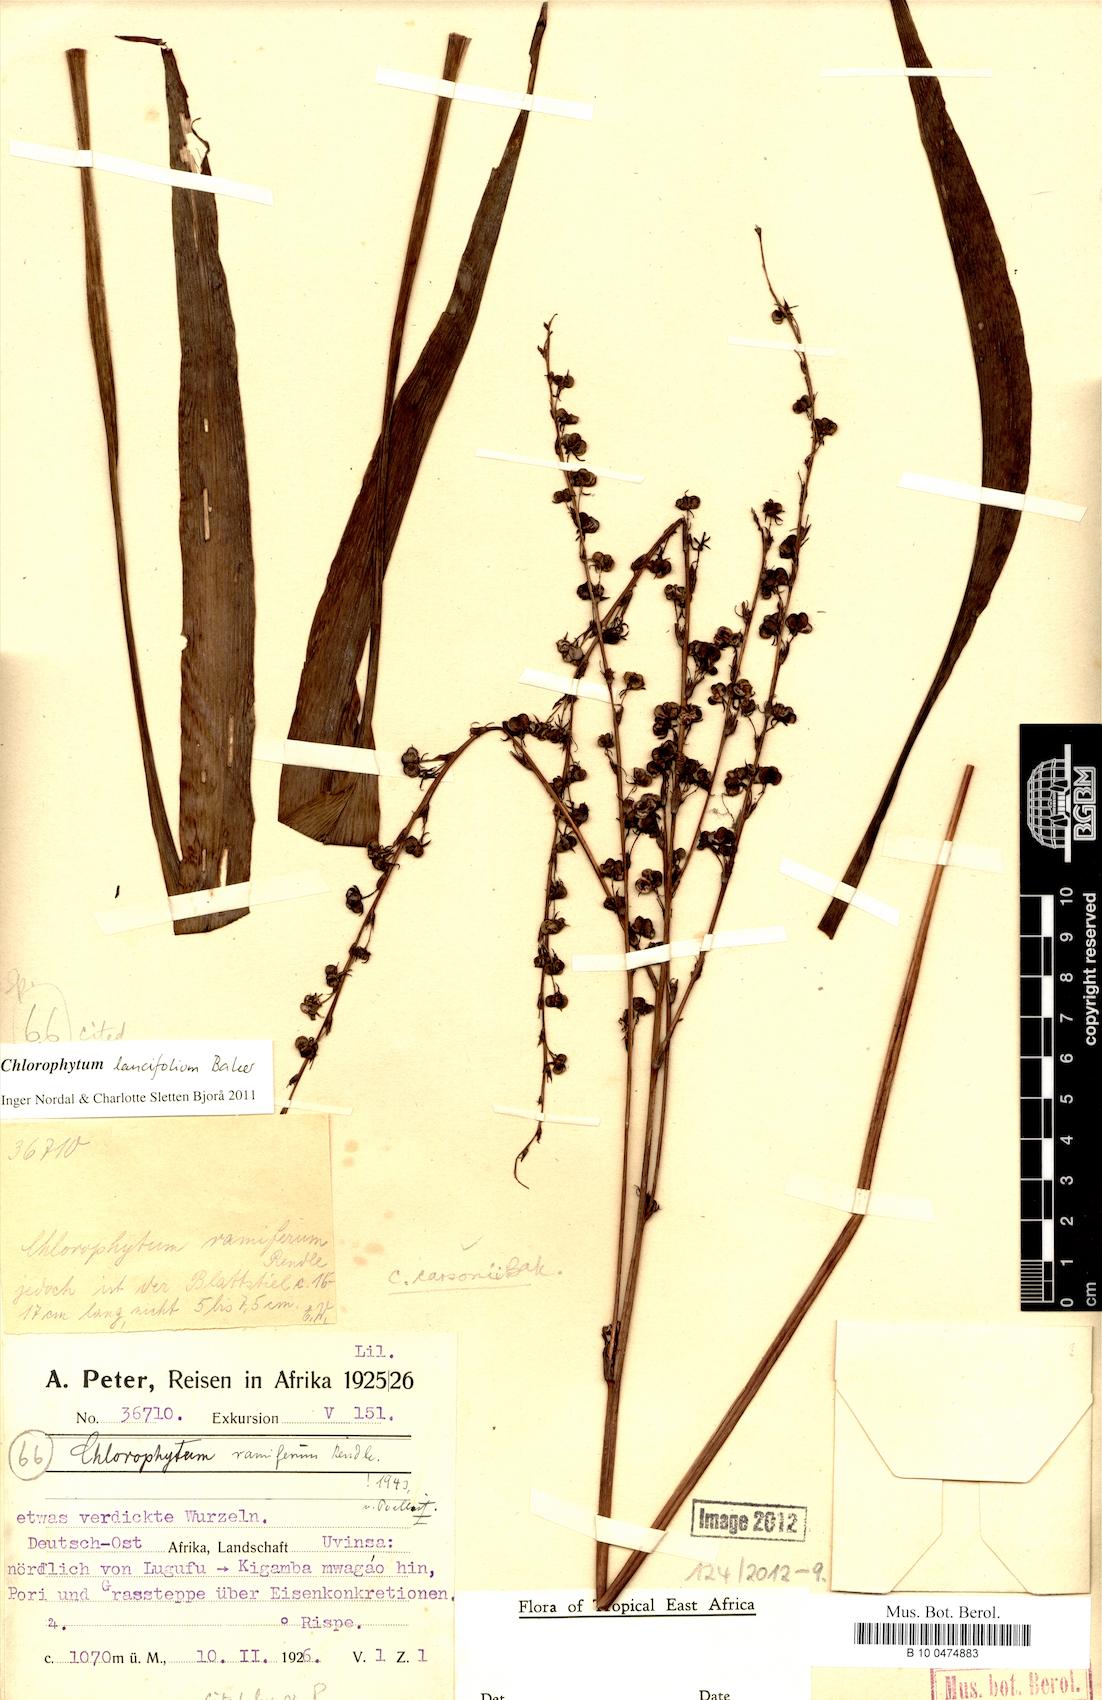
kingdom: Plantae
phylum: Tracheophyta
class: Liliopsida
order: Asparagales
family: Asparagaceae
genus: Chlorophytum
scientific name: Chlorophytum lancifolium
